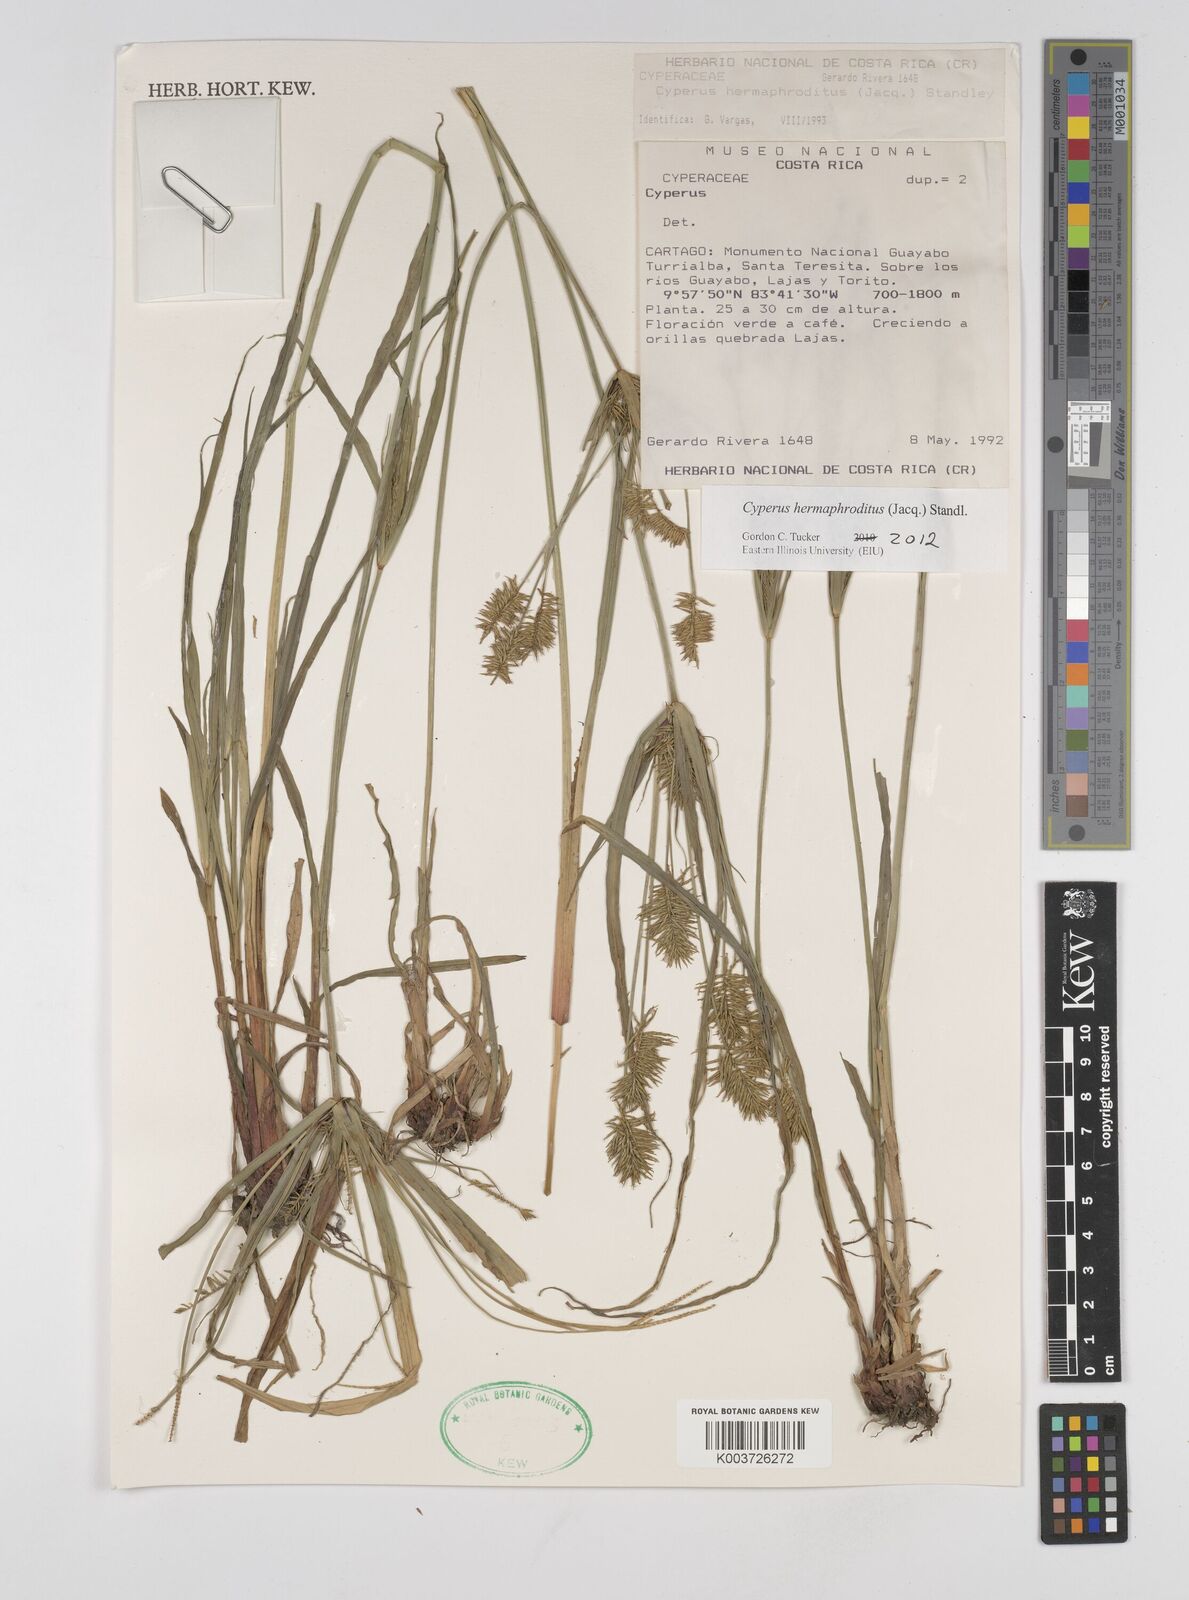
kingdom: Plantae
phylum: Tracheophyta
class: Liliopsida
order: Poales
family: Cyperaceae
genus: Cyperus
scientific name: Cyperus hermaphroditus
